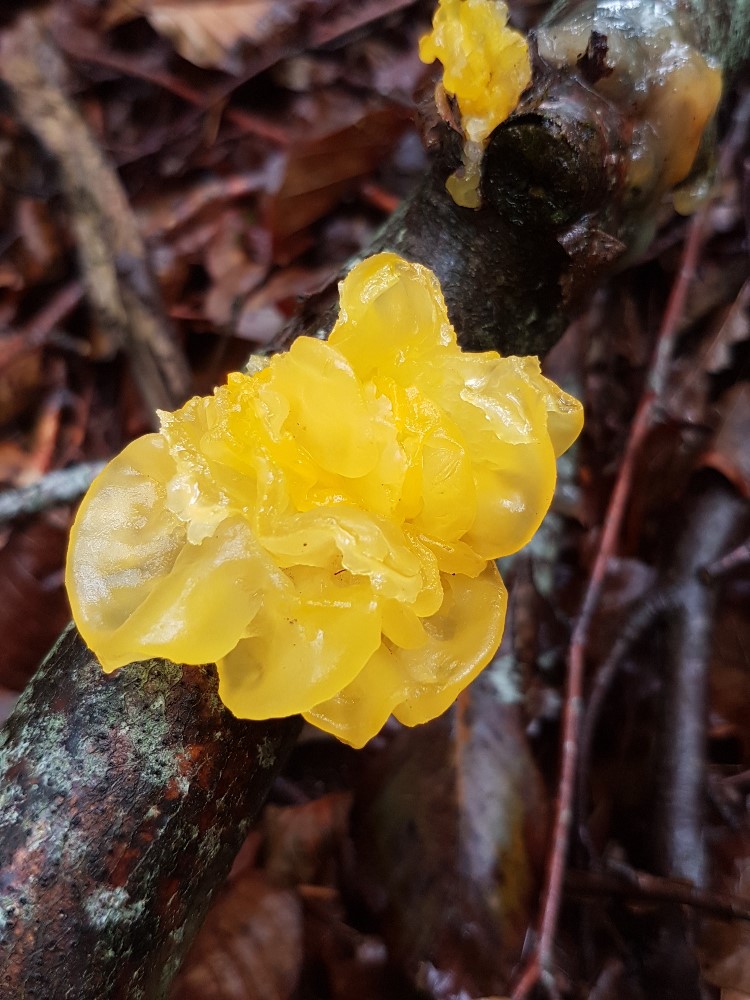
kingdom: Fungi
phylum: Basidiomycota
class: Tremellomycetes
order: Tremellales
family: Tremellaceae
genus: Tremella
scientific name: Tremella mesenterica
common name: gul bævresvamp
